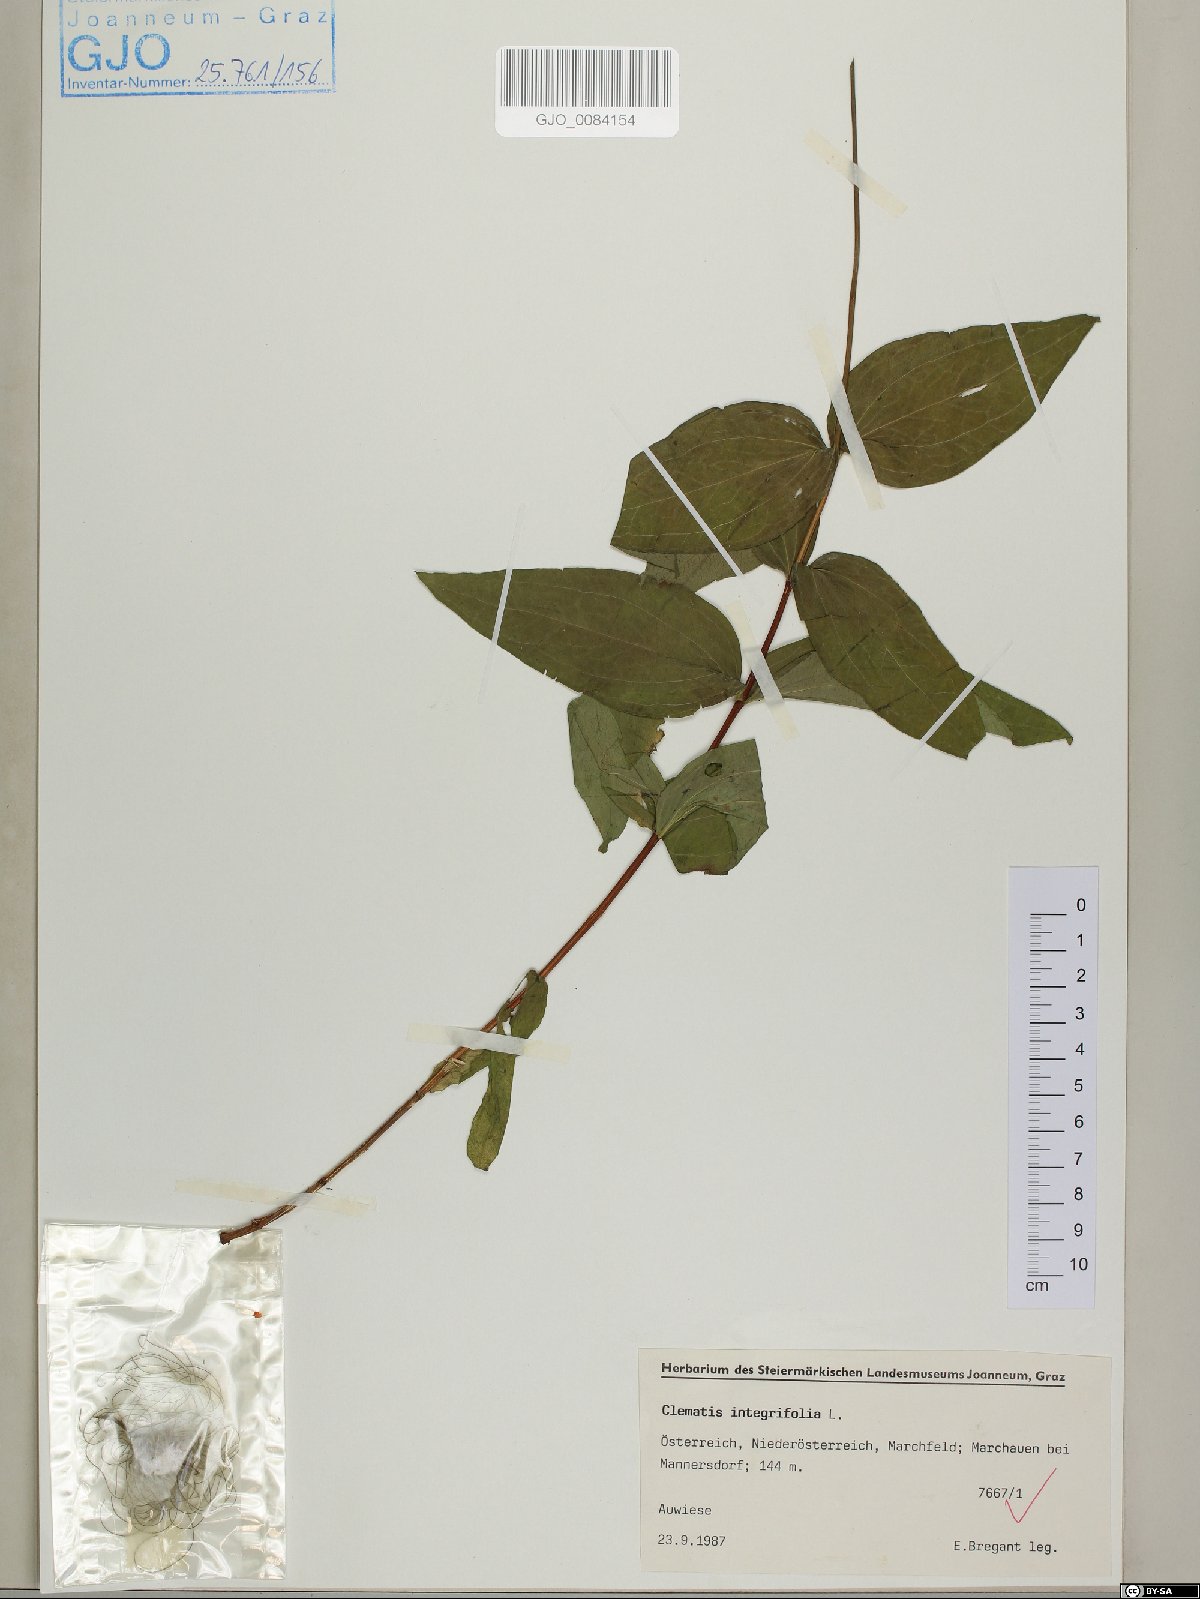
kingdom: Plantae
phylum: Tracheophyta
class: Magnoliopsida
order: Ranunculales
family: Ranunculaceae
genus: Clematis
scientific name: Clematis integrifolia
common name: Solitary clematis
